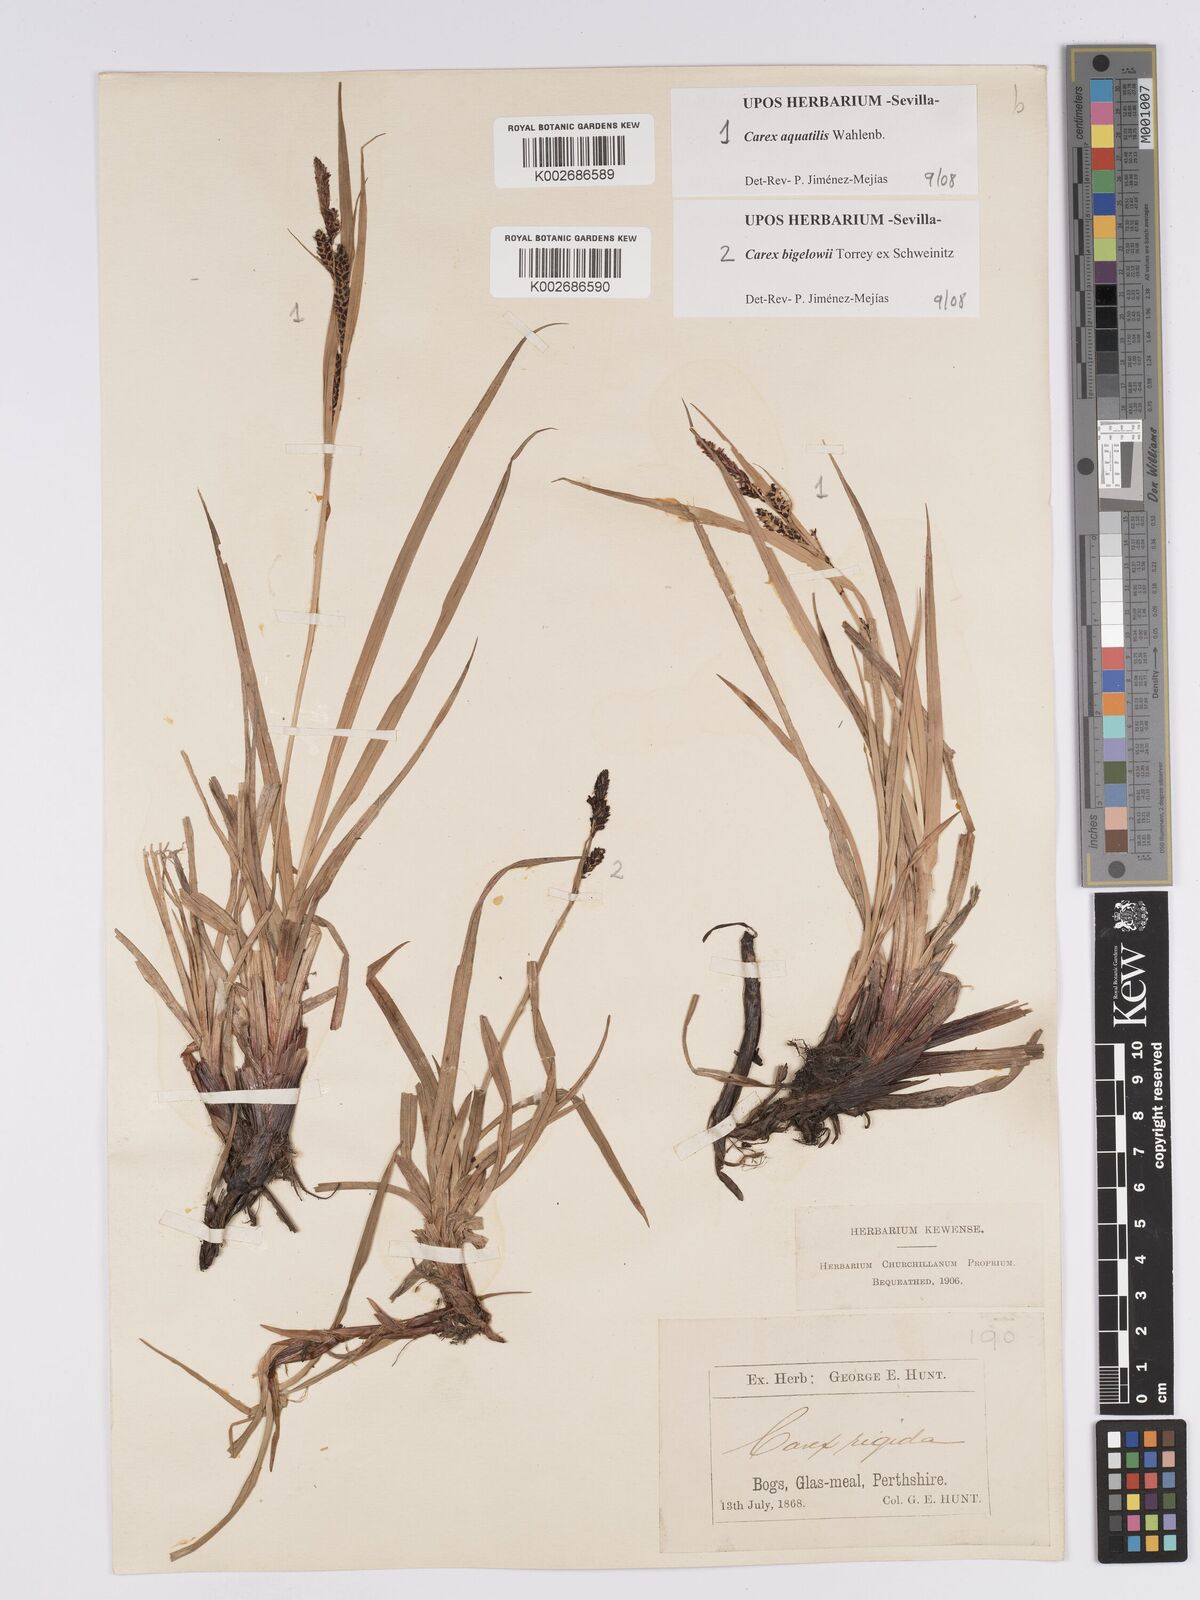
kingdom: Plantae
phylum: Tracheophyta
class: Liliopsida
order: Poales
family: Cyperaceae
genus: Carex
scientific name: Carex aquatilis
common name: Water sedge
